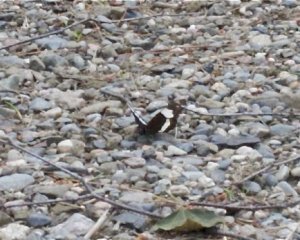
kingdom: Animalia
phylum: Arthropoda
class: Insecta
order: Lepidoptera
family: Nymphalidae
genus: Limenitis
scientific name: Limenitis arthemis
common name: Red-spotted Admiral
